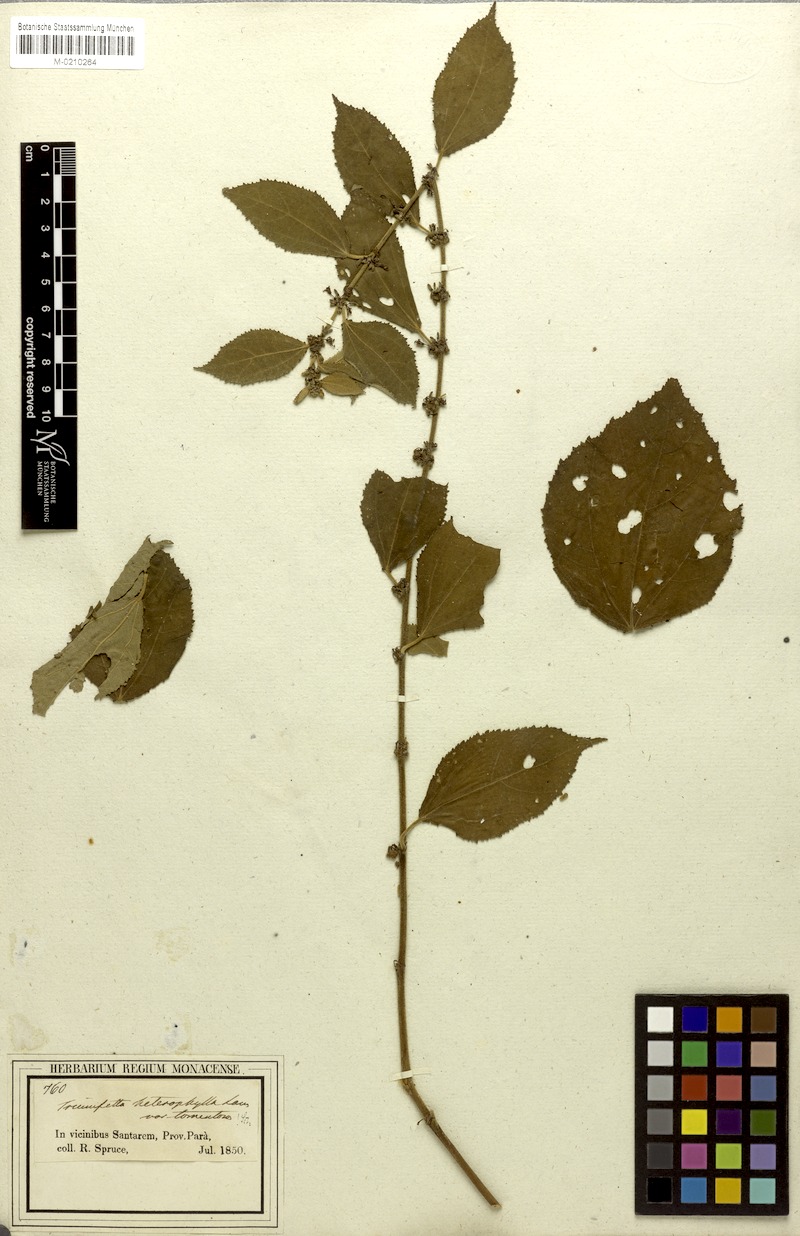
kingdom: Plantae
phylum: Tracheophyta
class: Magnoliopsida
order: Malvales
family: Malvaceae
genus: Triumfetta
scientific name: Triumfetta lappula
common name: Burbark
